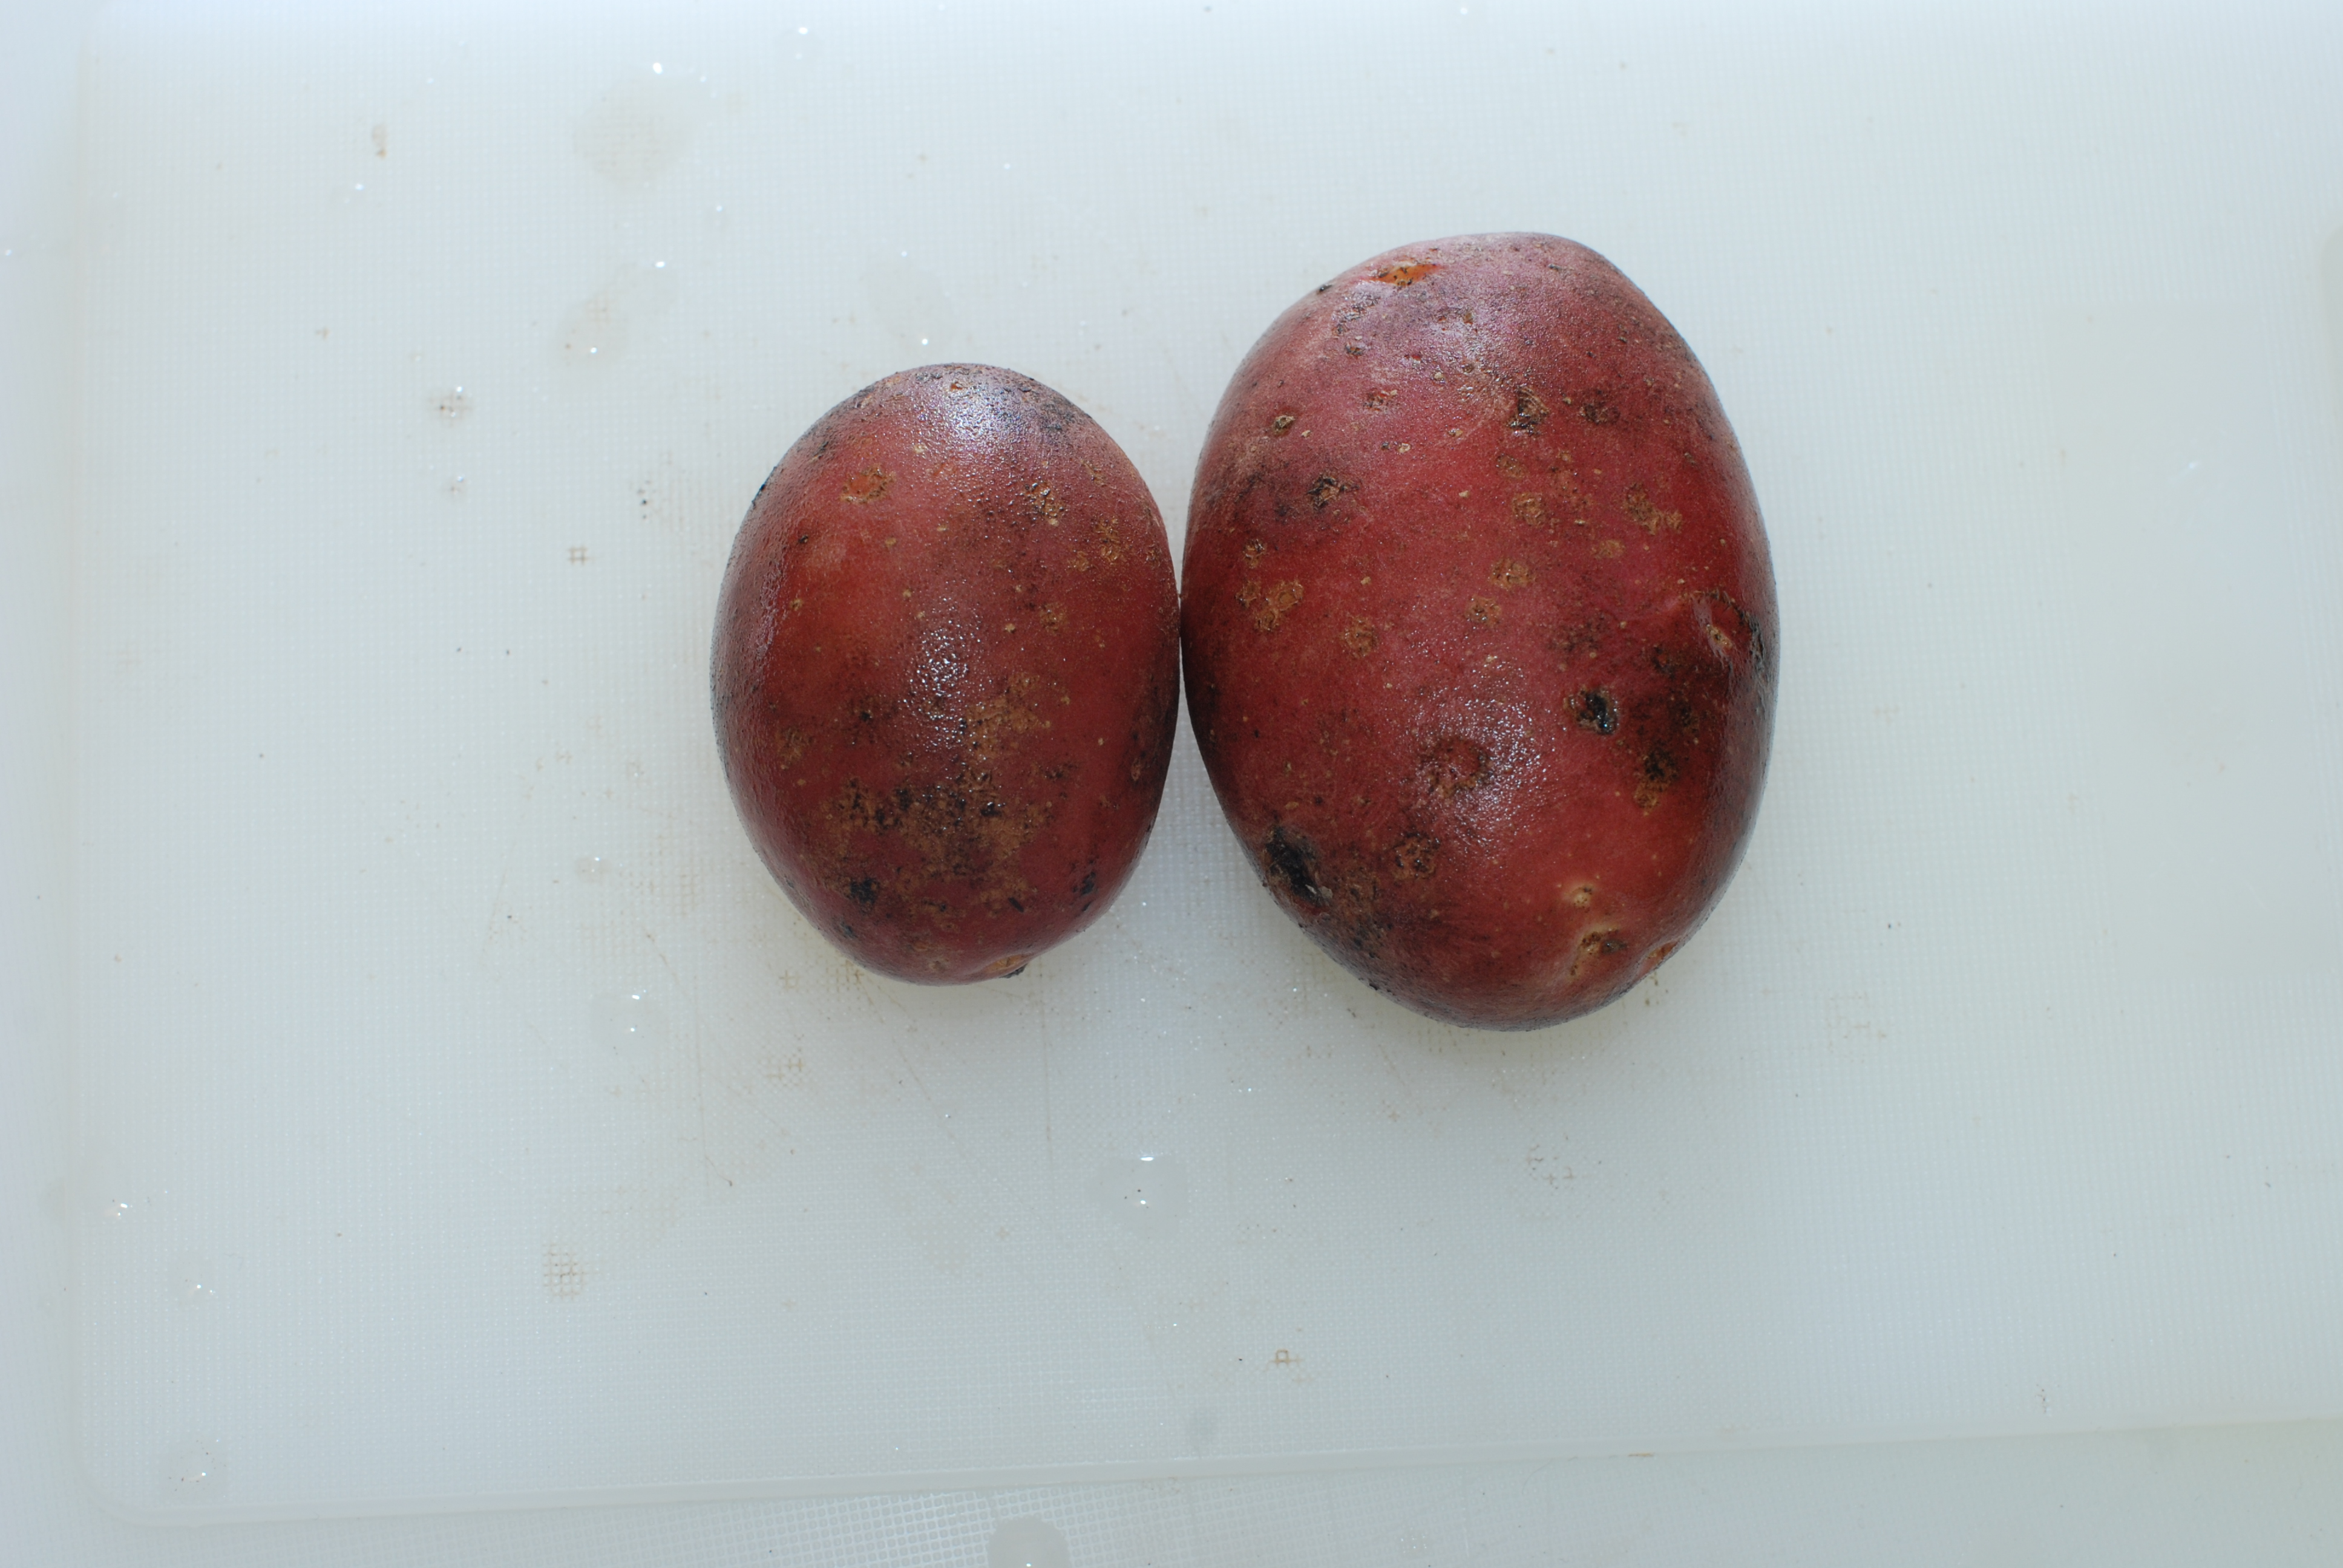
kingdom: Plantae
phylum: Tracheophyta
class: Magnoliopsida
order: Solanales
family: Solanaceae
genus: Solanum
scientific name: Solanum tuberosum
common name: Potato
